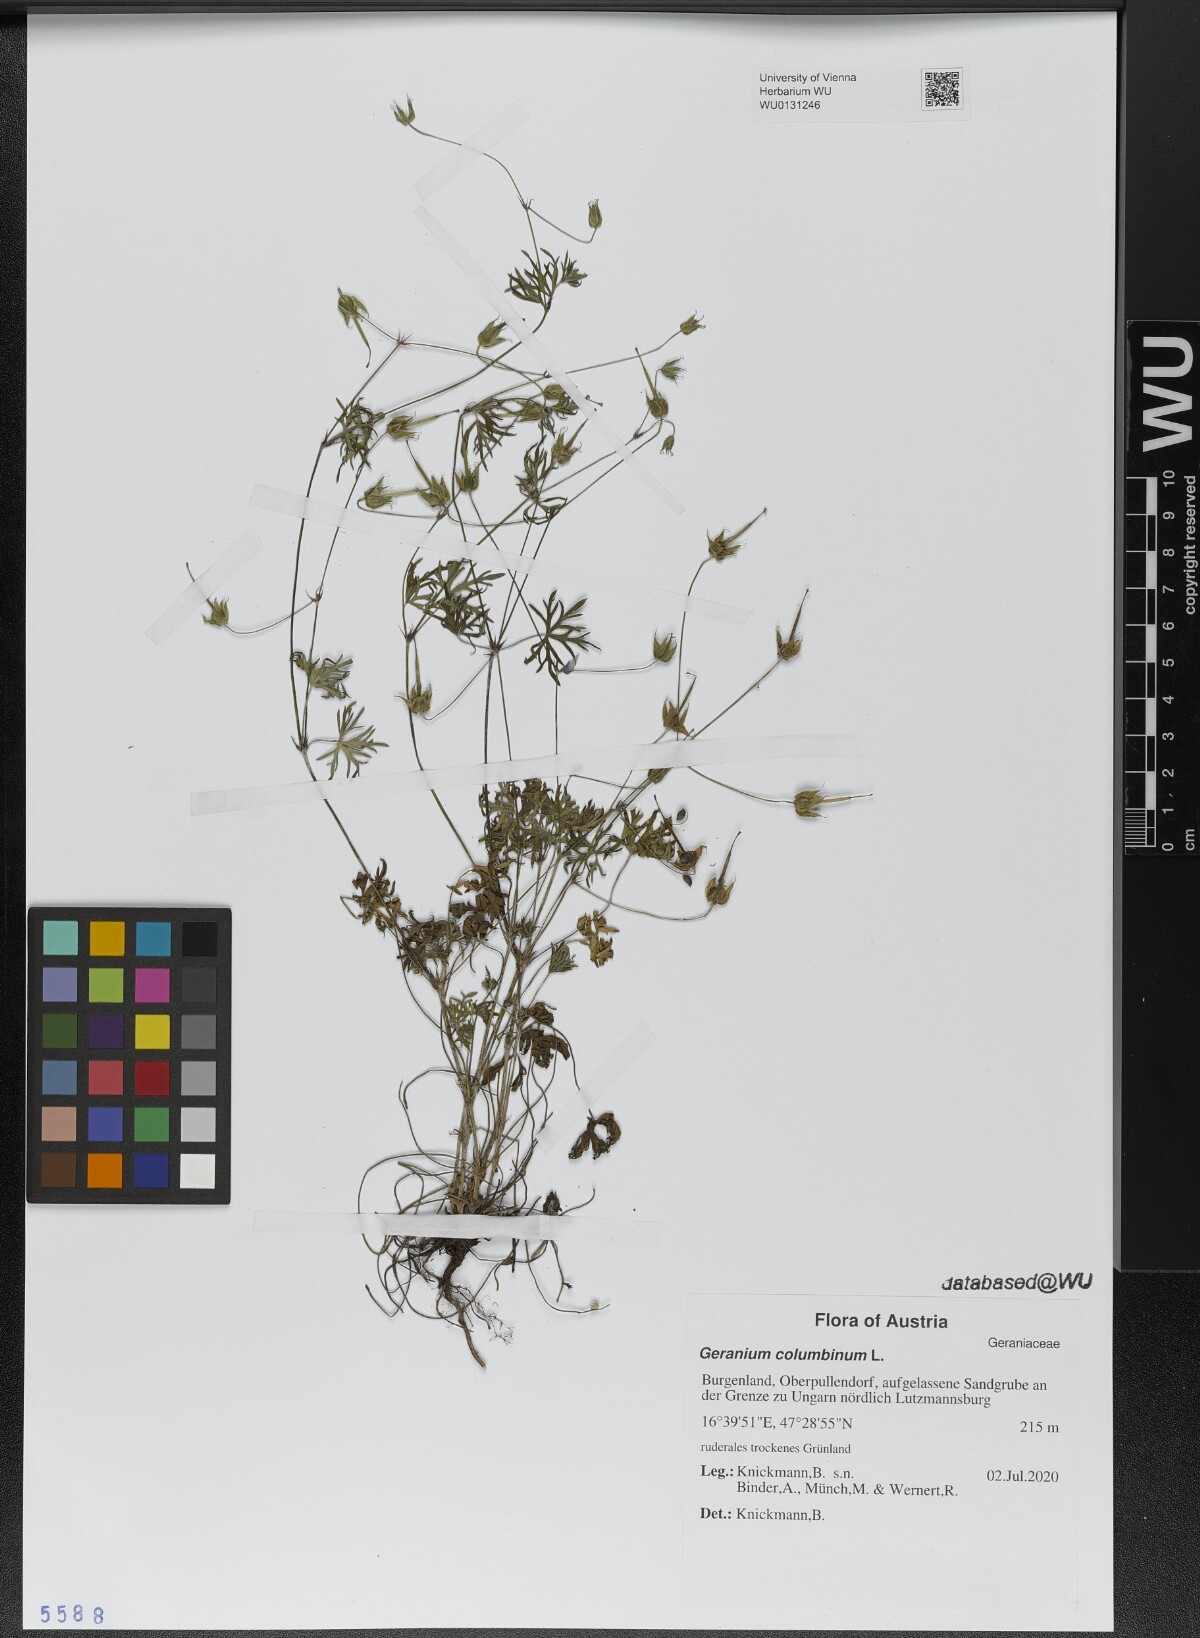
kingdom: Plantae
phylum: Tracheophyta
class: Magnoliopsida
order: Geraniales
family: Geraniaceae
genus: Geranium
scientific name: Geranium columbinum
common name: Long-stalked crane's-bill
